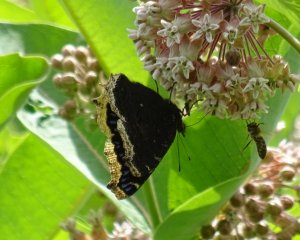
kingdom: Animalia
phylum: Arthropoda
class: Insecta
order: Lepidoptera
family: Nymphalidae
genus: Nymphalis
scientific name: Nymphalis antiopa
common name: Mourning Cloak
